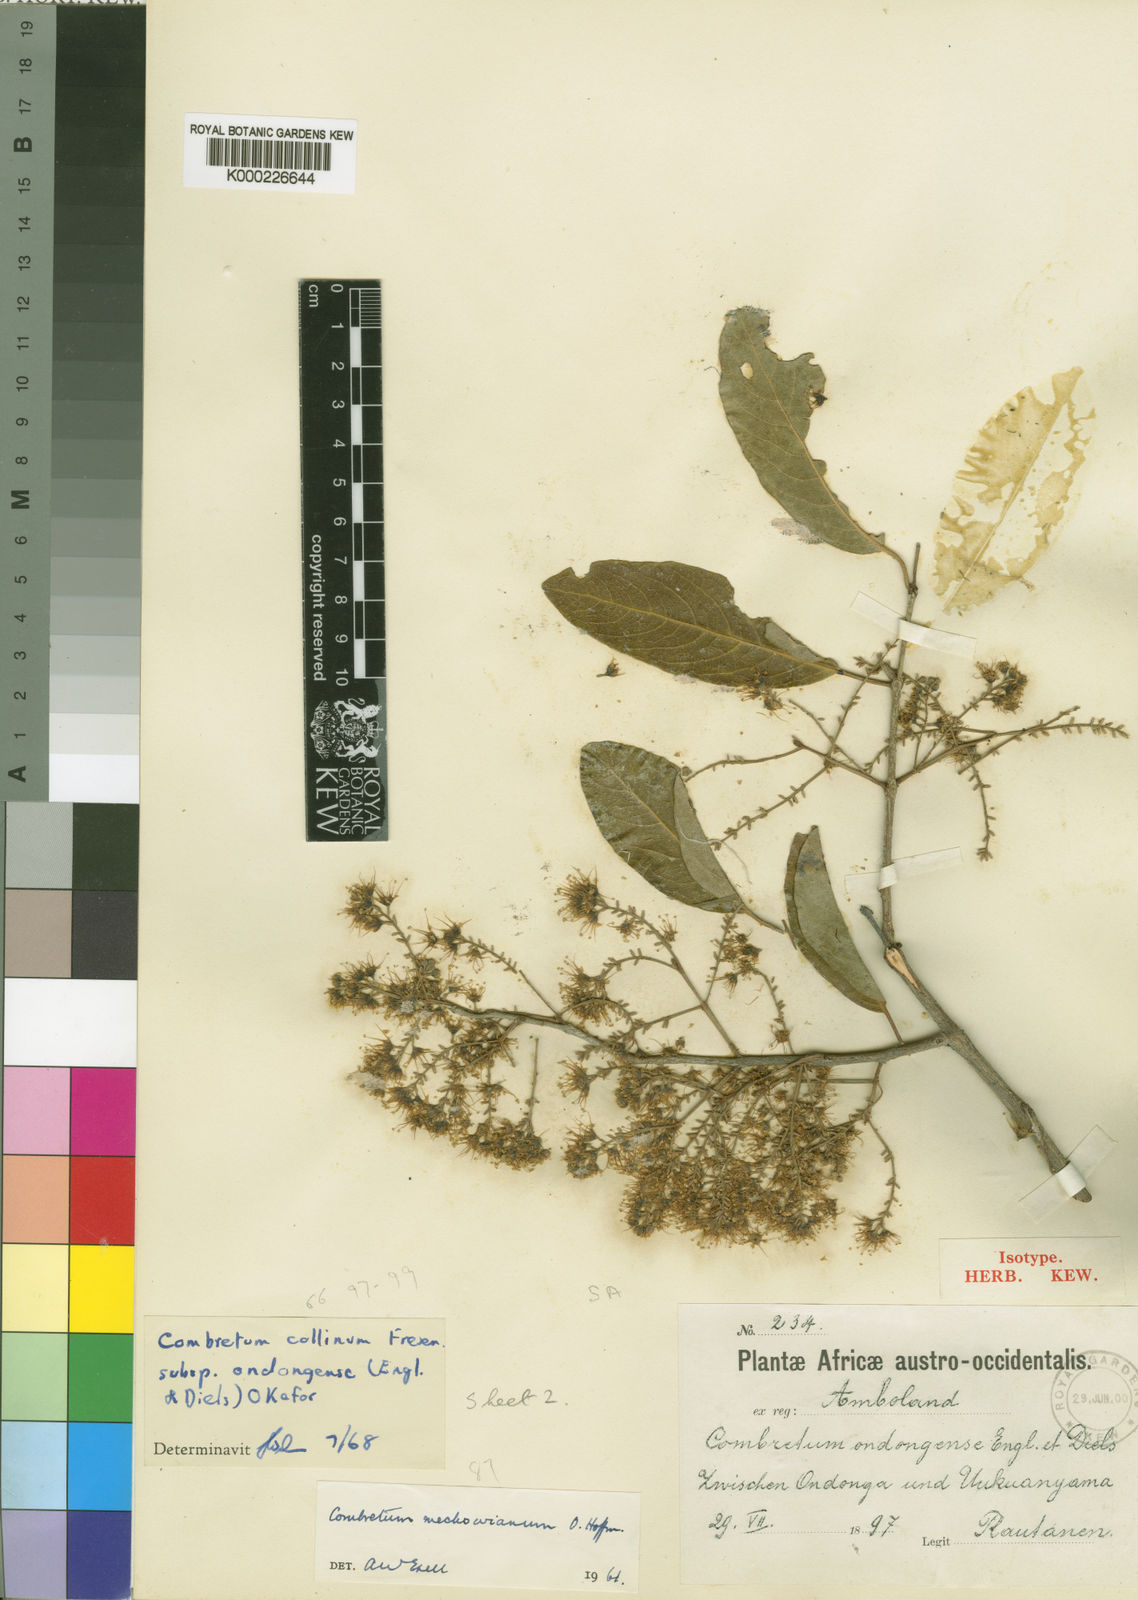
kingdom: Plantae
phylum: Tracheophyta
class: Magnoliopsida
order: Myrtales
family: Combretaceae
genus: Combretum
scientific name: Combretum collinum
